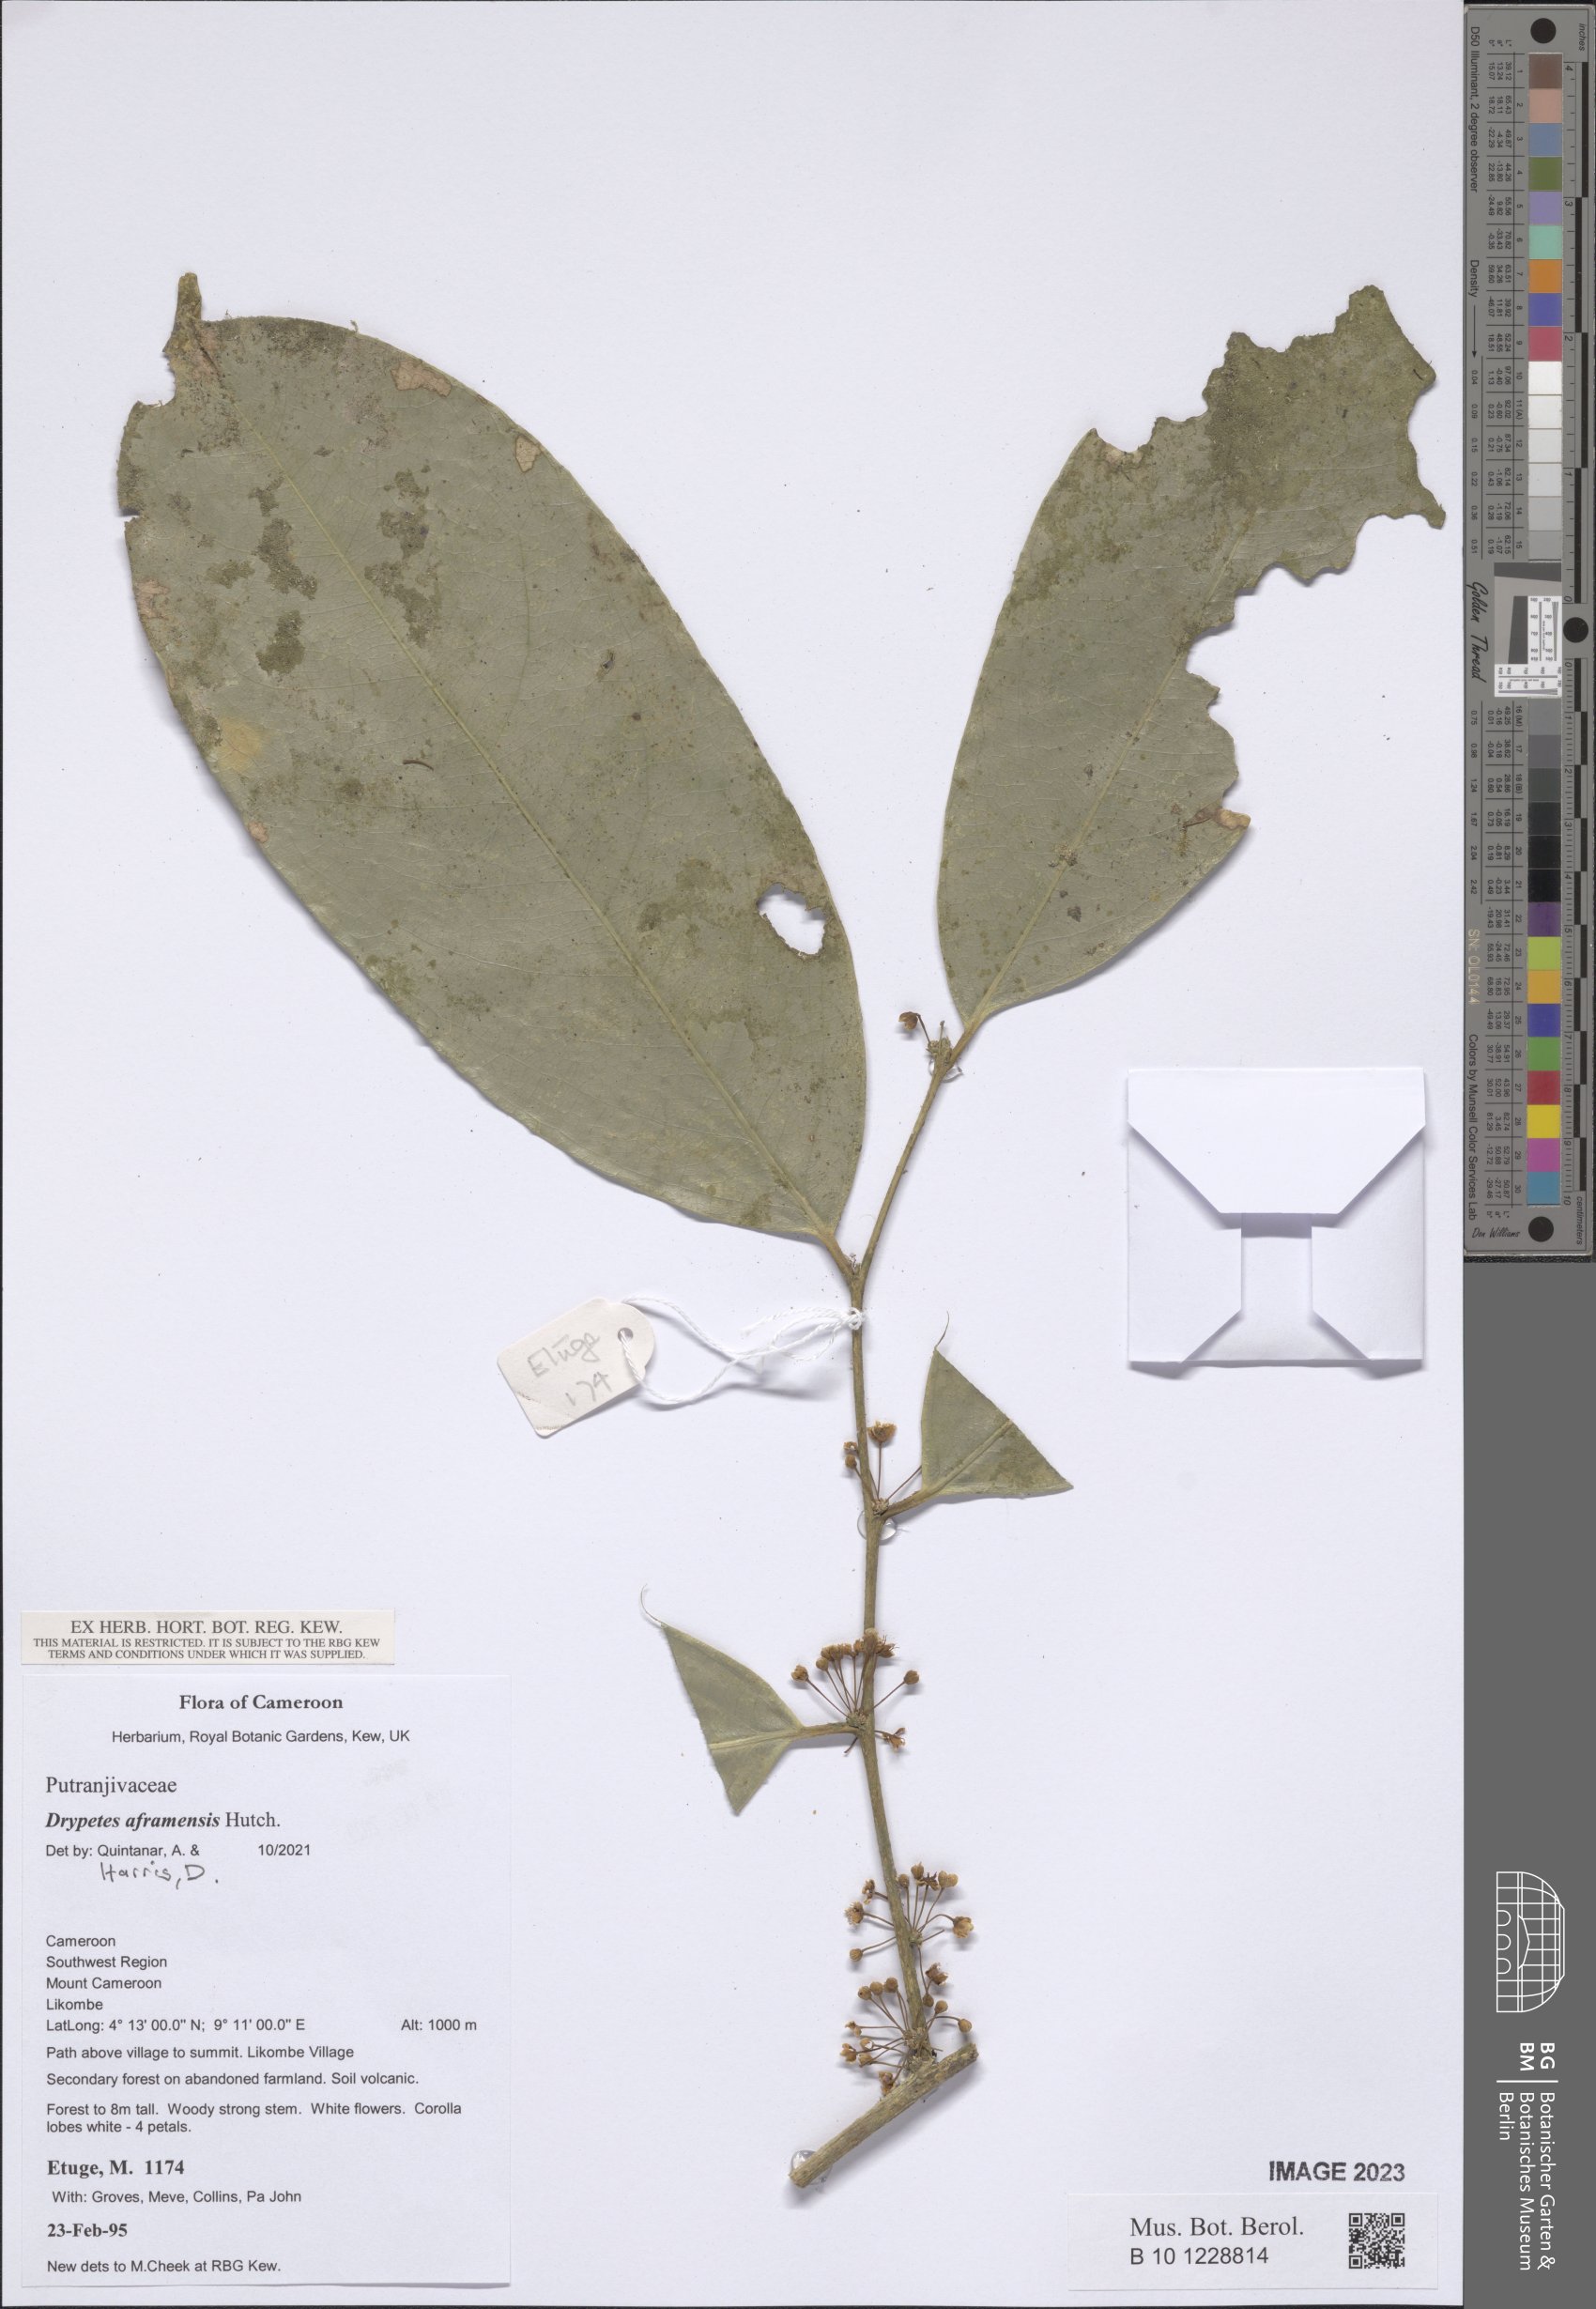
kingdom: Plantae
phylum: Tracheophyta
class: Magnoliopsida
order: Malpighiales
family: Putranjivaceae
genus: Drypetes
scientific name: Drypetes aframensis
